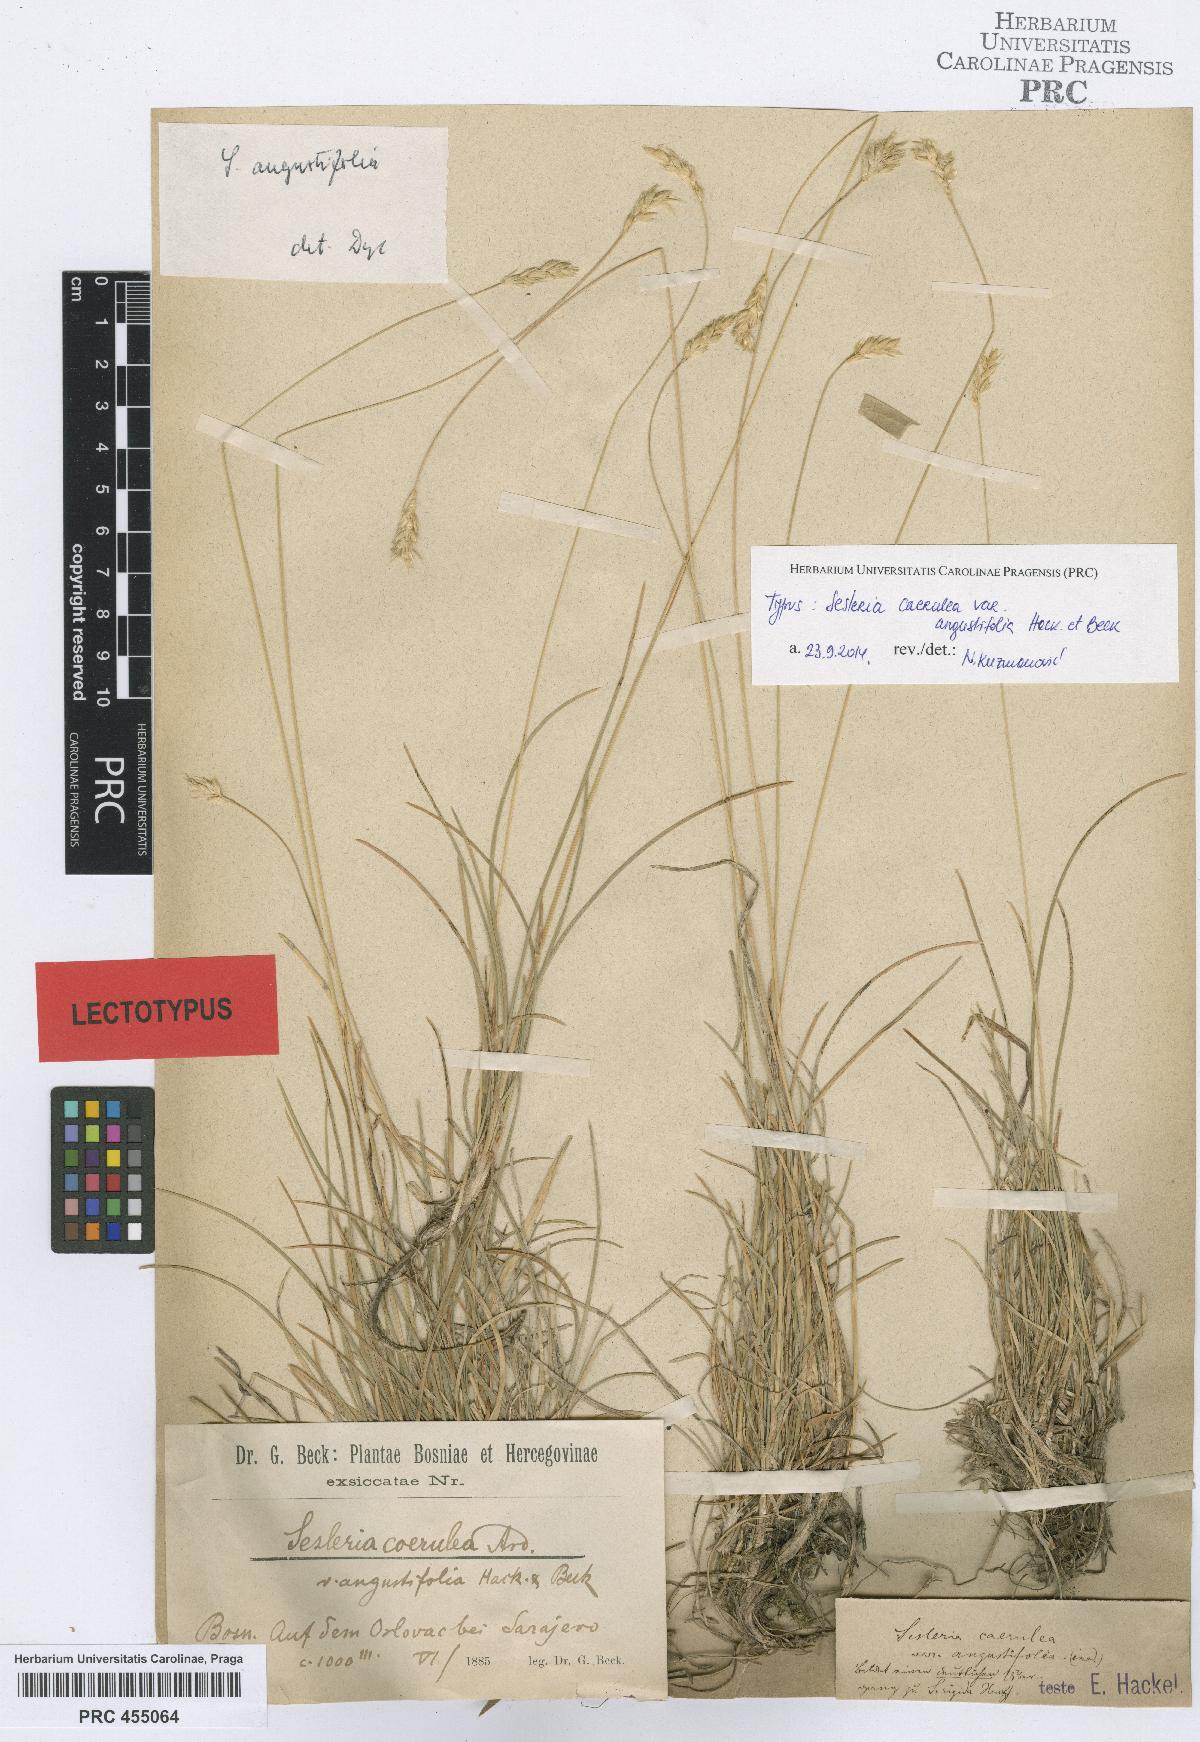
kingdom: Plantae
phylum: Tracheophyta
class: Liliopsida
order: Poales
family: Poaceae
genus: Sesleria
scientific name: Sesleria angustifolia
